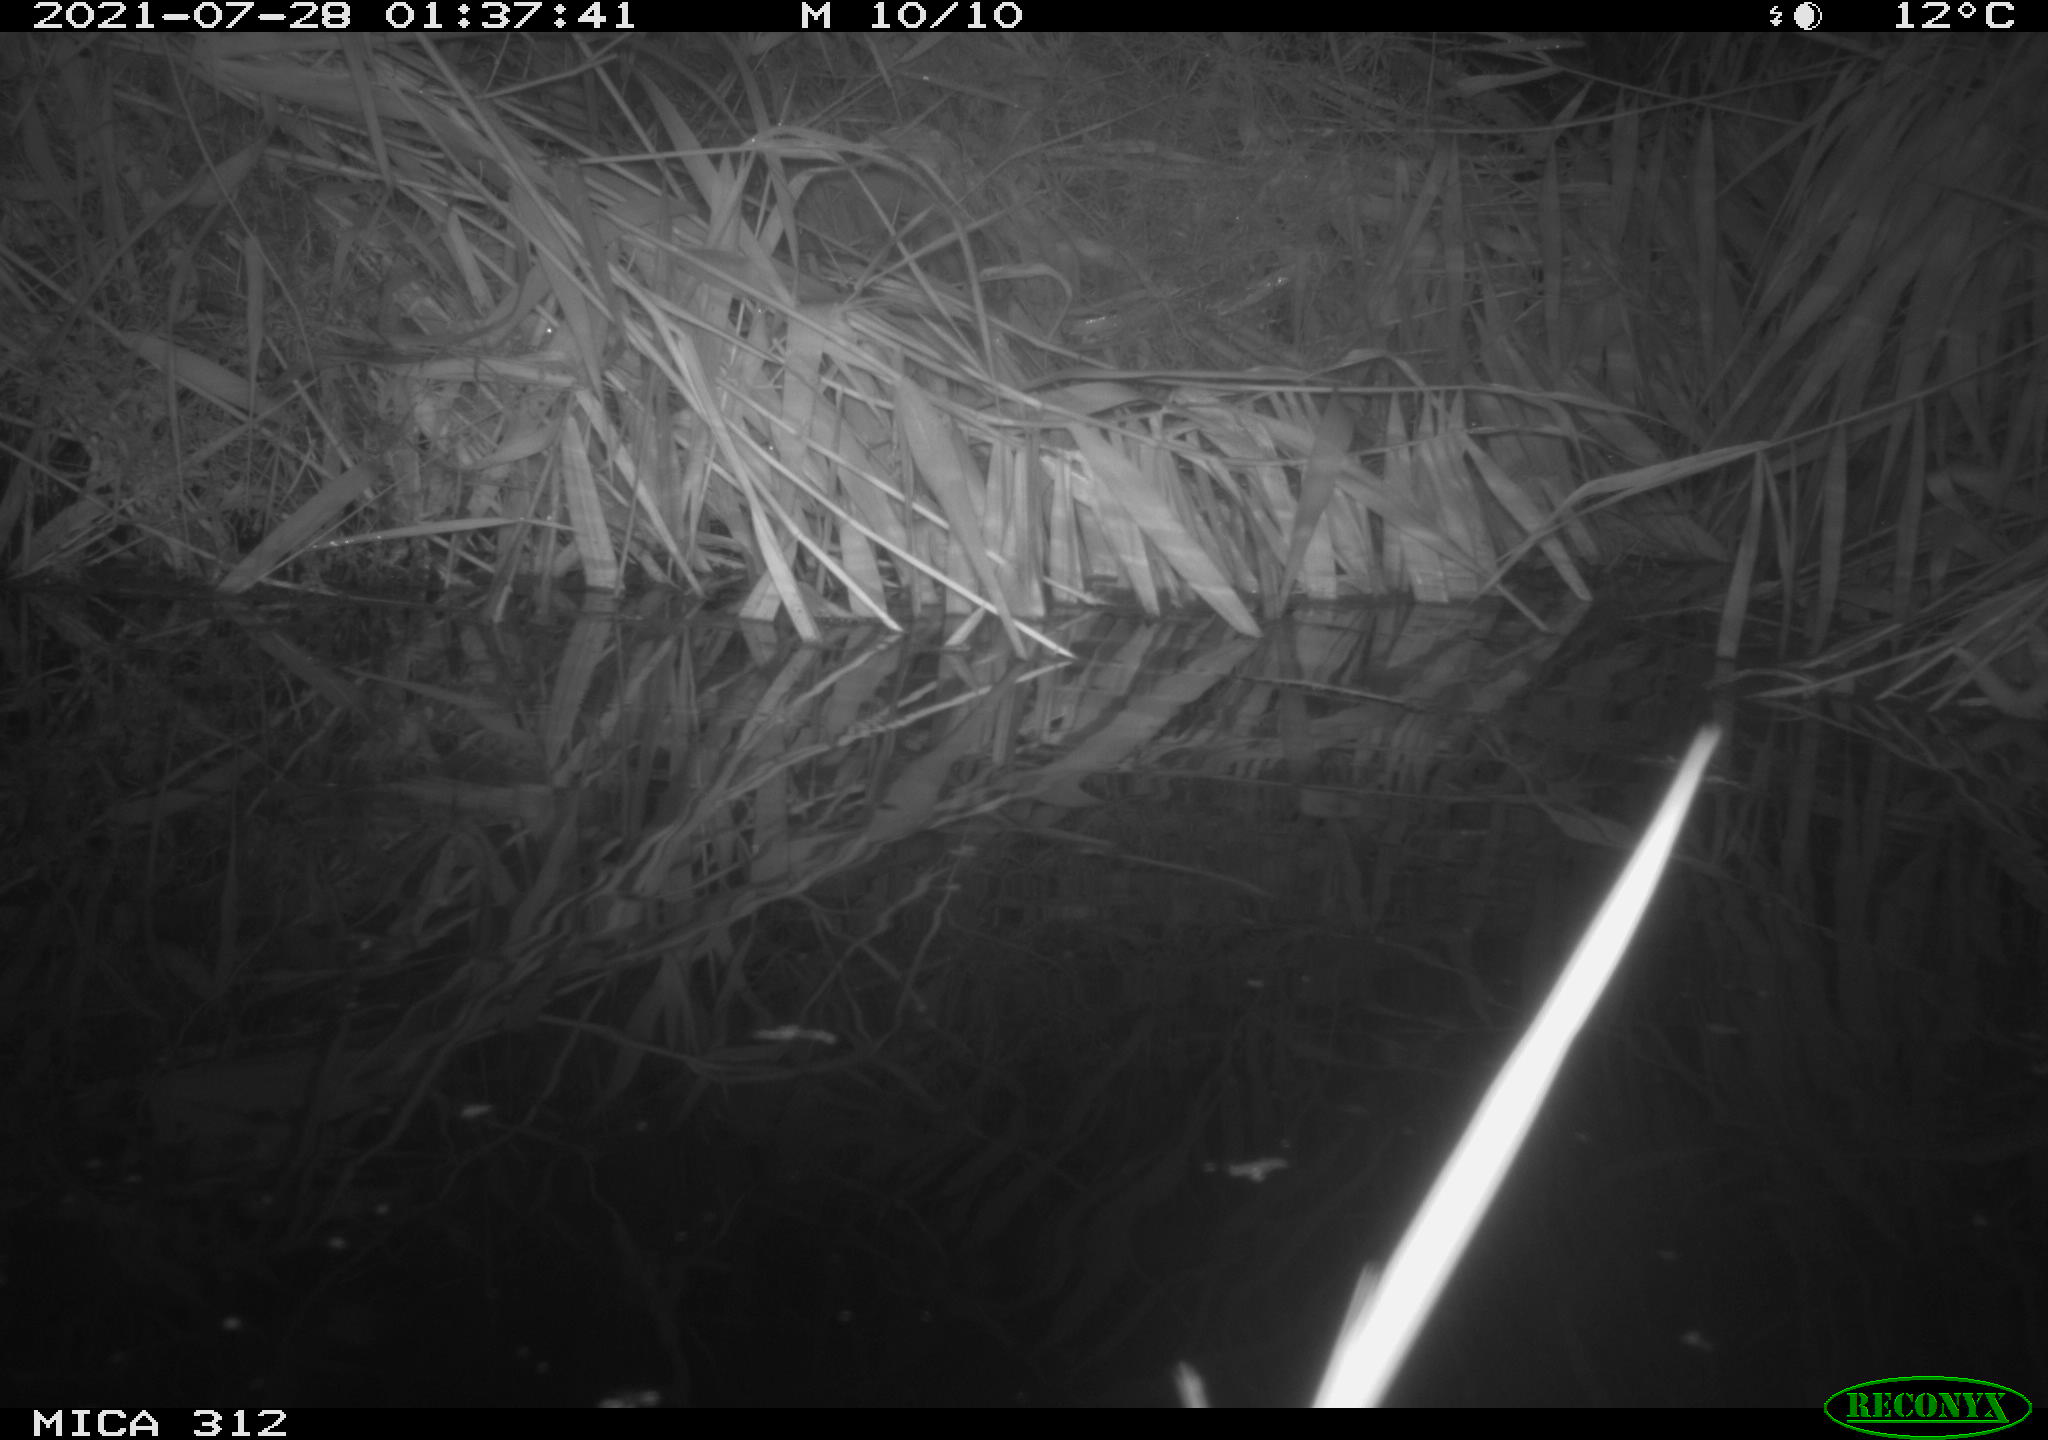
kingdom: Animalia
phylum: Chordata
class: Mammalia
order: Rodentia
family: Muridae
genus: Rattus
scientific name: Rattus norvegicus
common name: Brown rat
